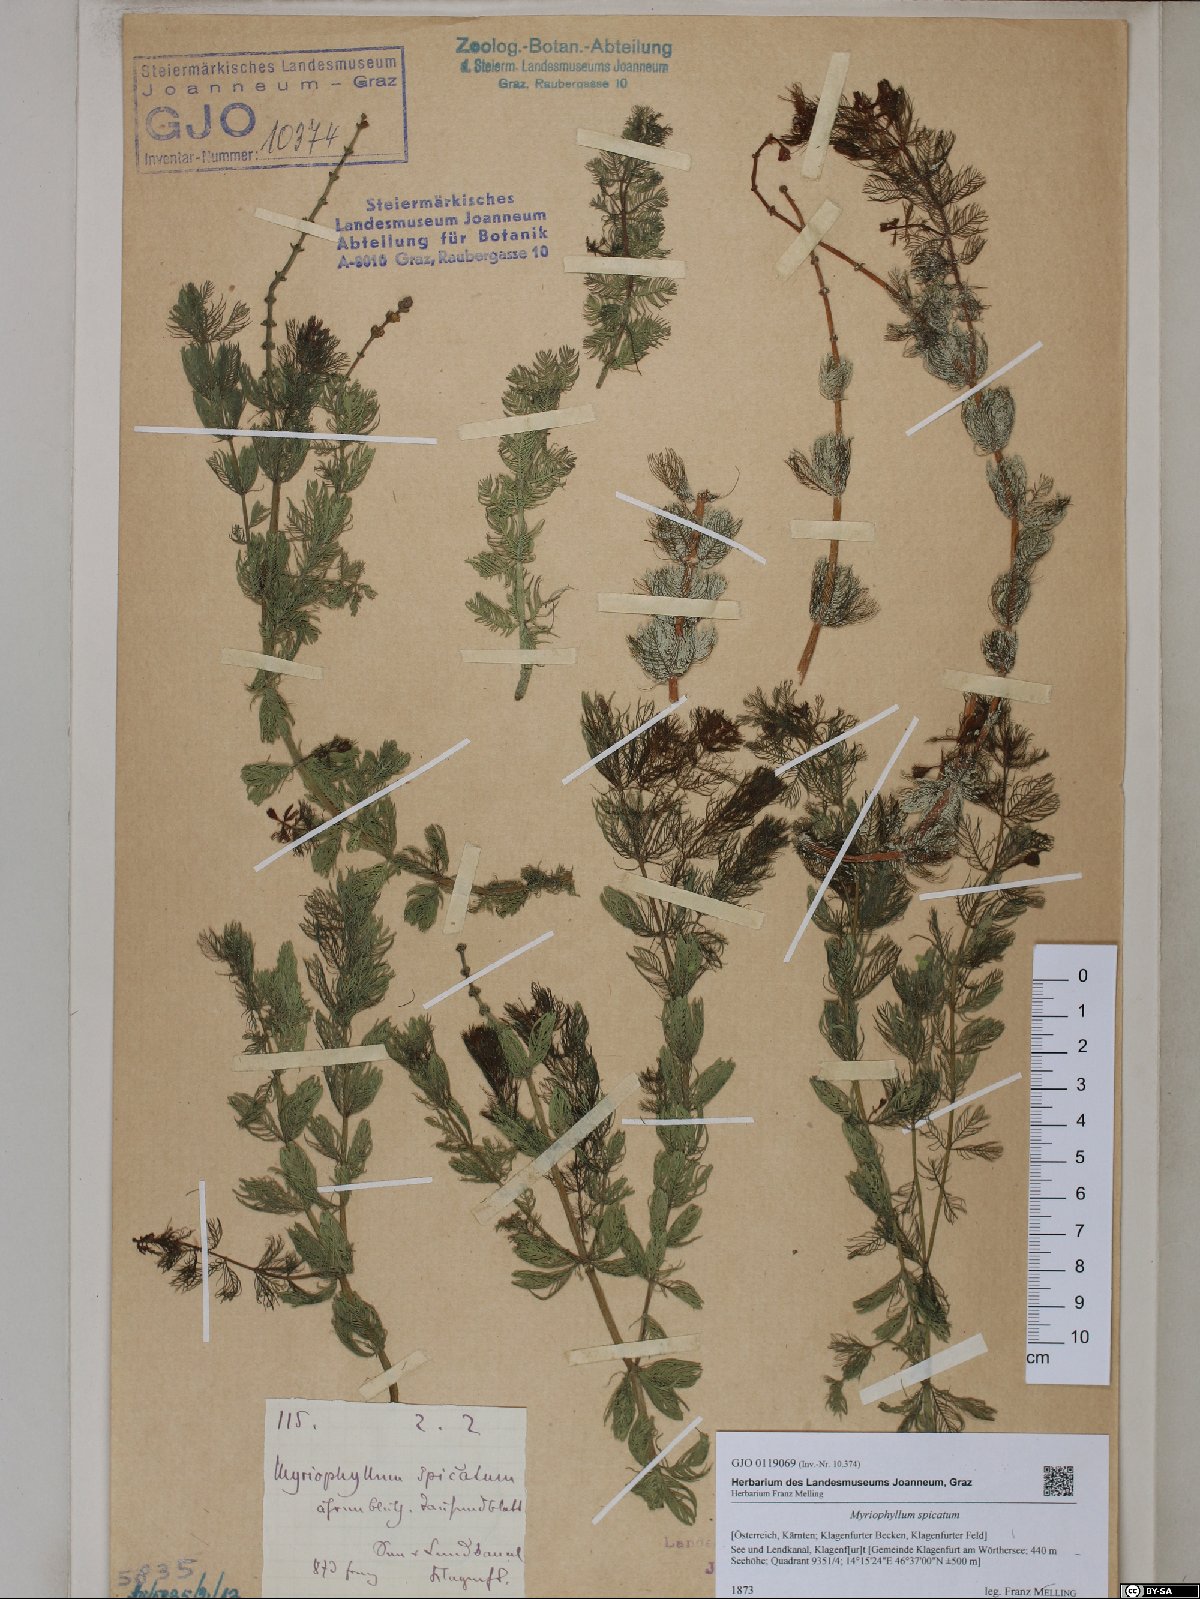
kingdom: Plantae
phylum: Tracheophyta
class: Magnoliopsida
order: Saxifragales
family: Haloragaceae
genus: Myriophyllum
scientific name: Myriophyllum spicatum
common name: Spiked water-milfoil
